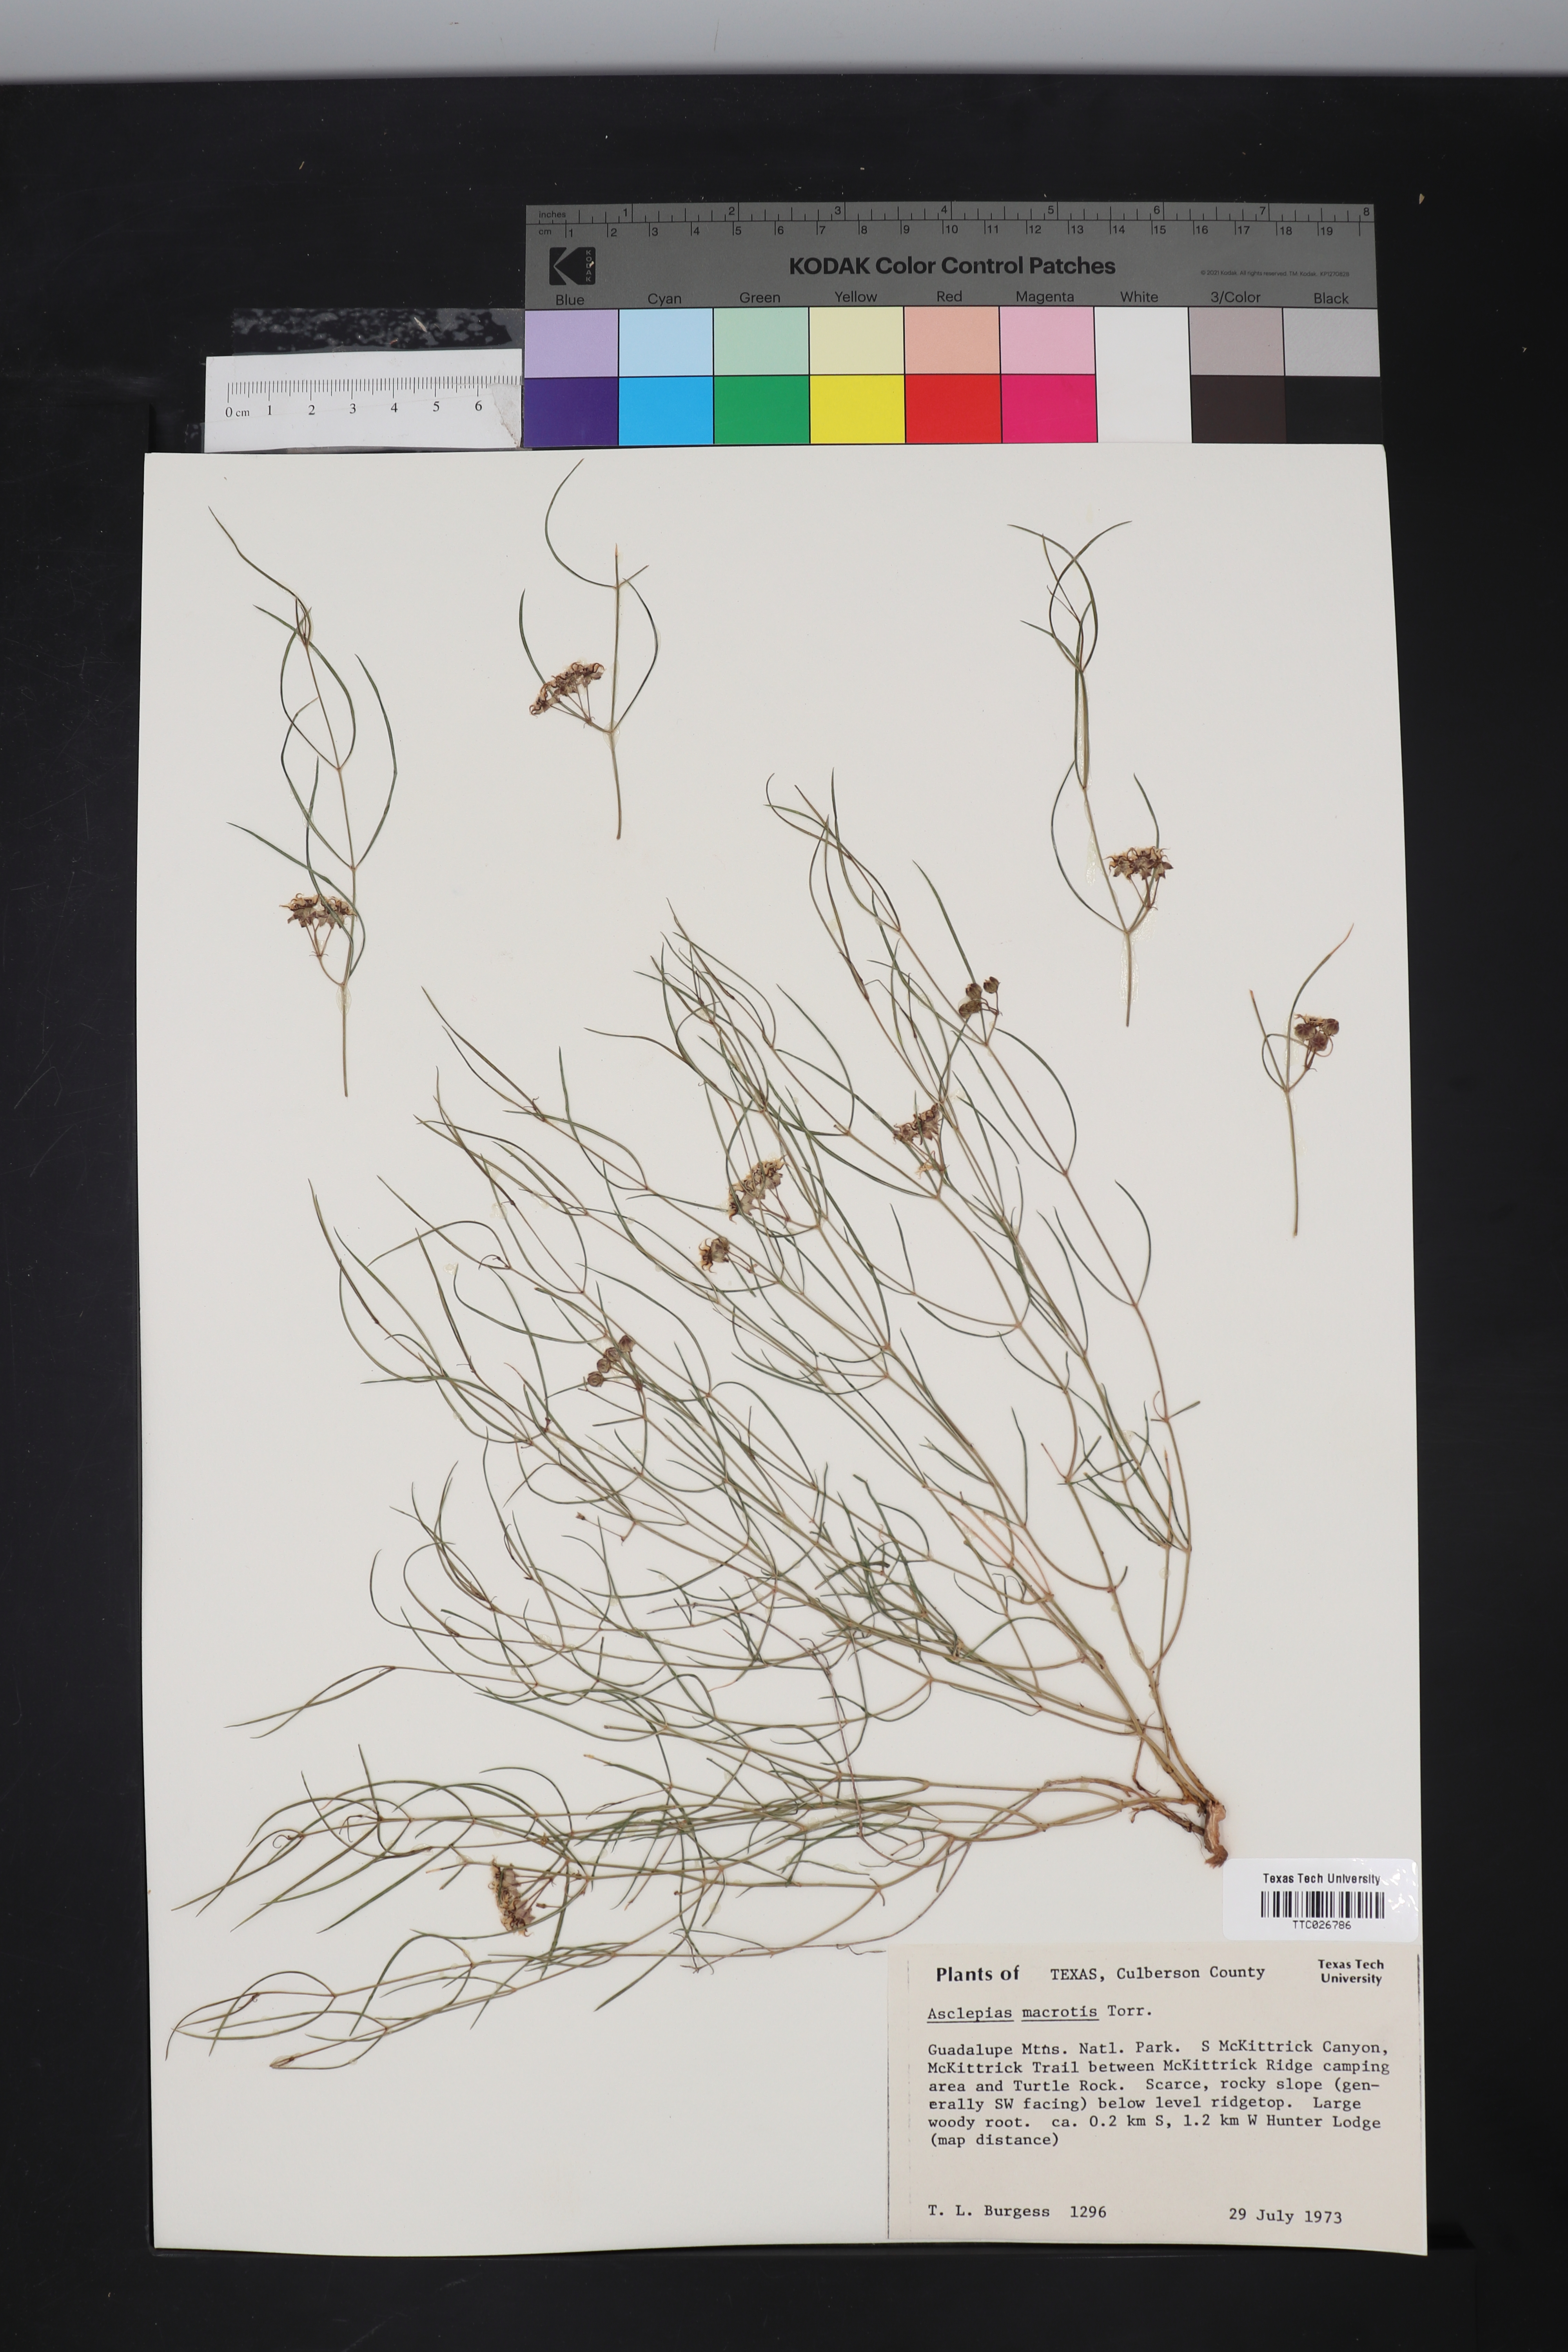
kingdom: Plantae
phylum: Tracheophyta
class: Magnoliopsida
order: Gentianales
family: Apocynaceae
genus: Asclepias
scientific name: Asclepias macrotis
